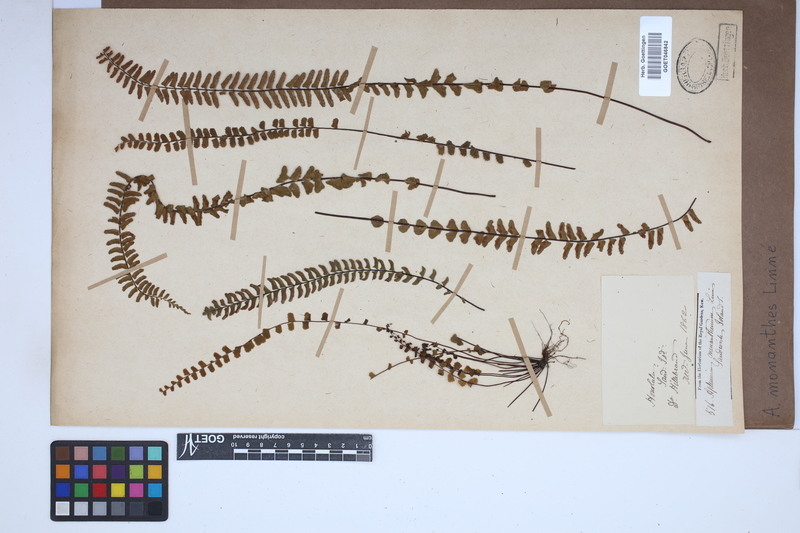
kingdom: Plantae
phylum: Tracheophyta
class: Polypodiopsida
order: Polypodiales
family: Aspleniaceae
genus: Asplenium
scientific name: Asplenium monanthes
